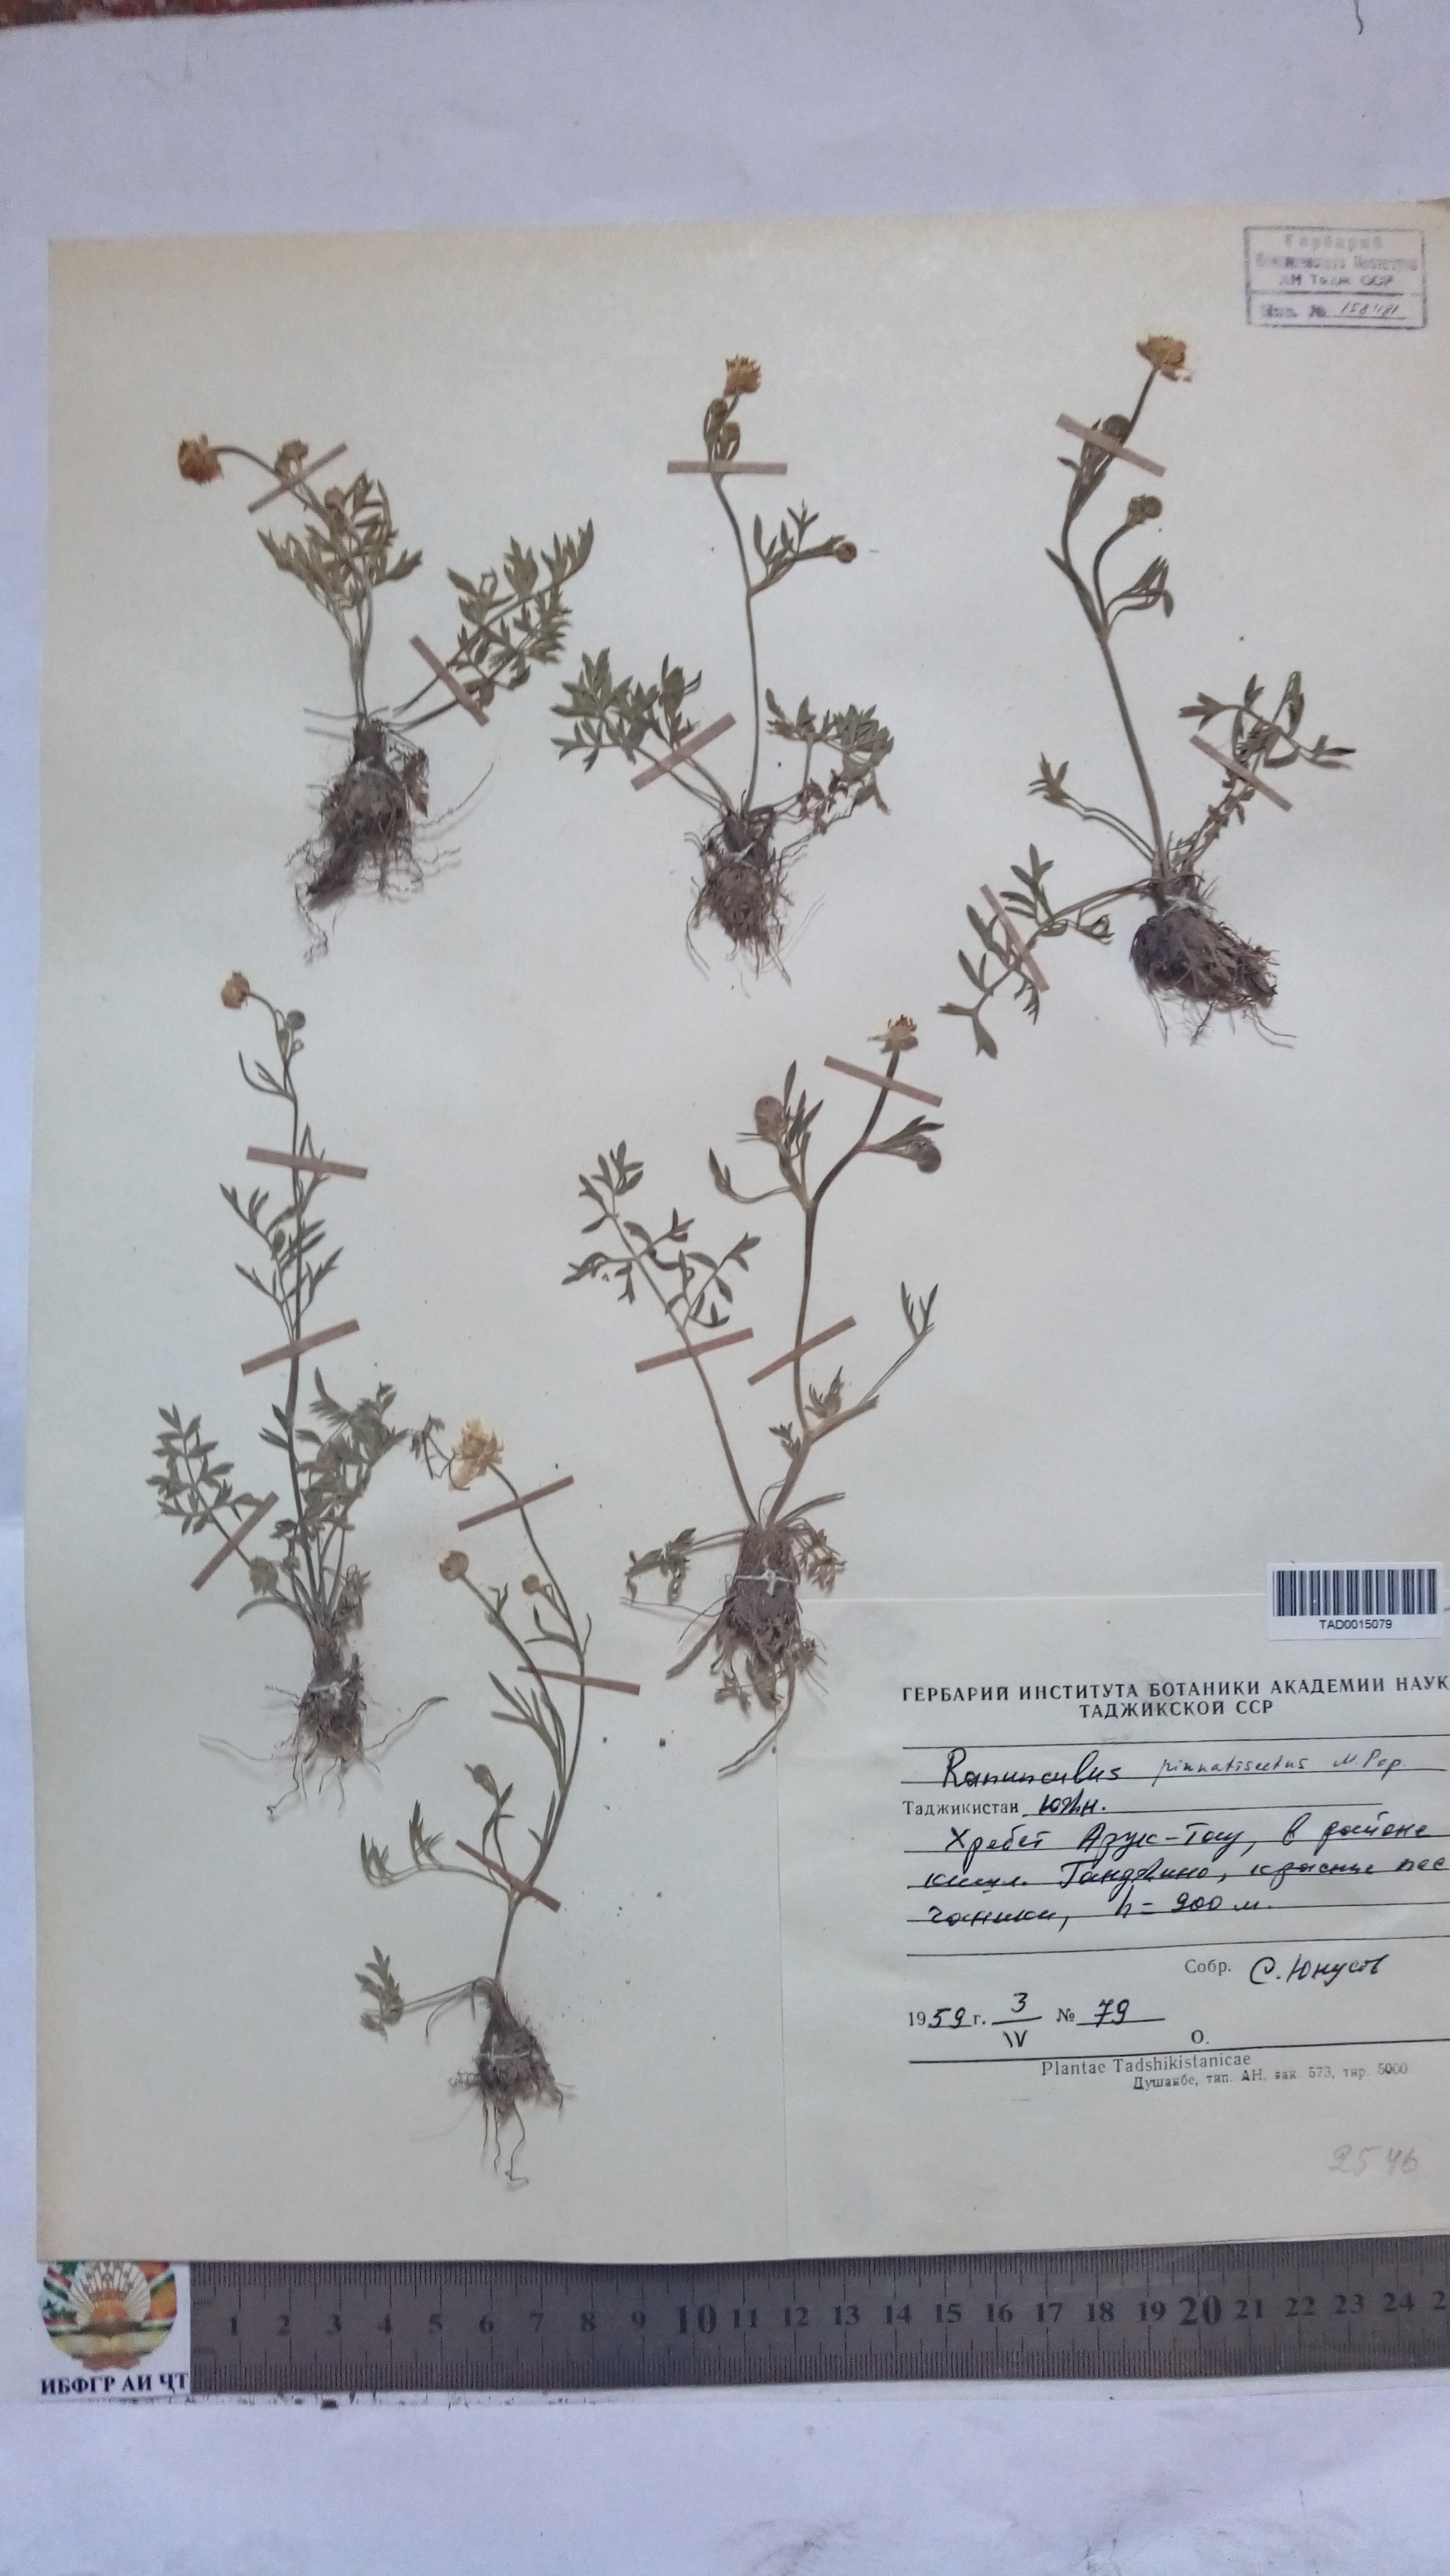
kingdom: Plantae
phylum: Tracheophyta
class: Magnoliopsida
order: Ranunculales
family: Ranunculaceae
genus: Ranunculus
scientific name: Ranunculus pinnatisectus
